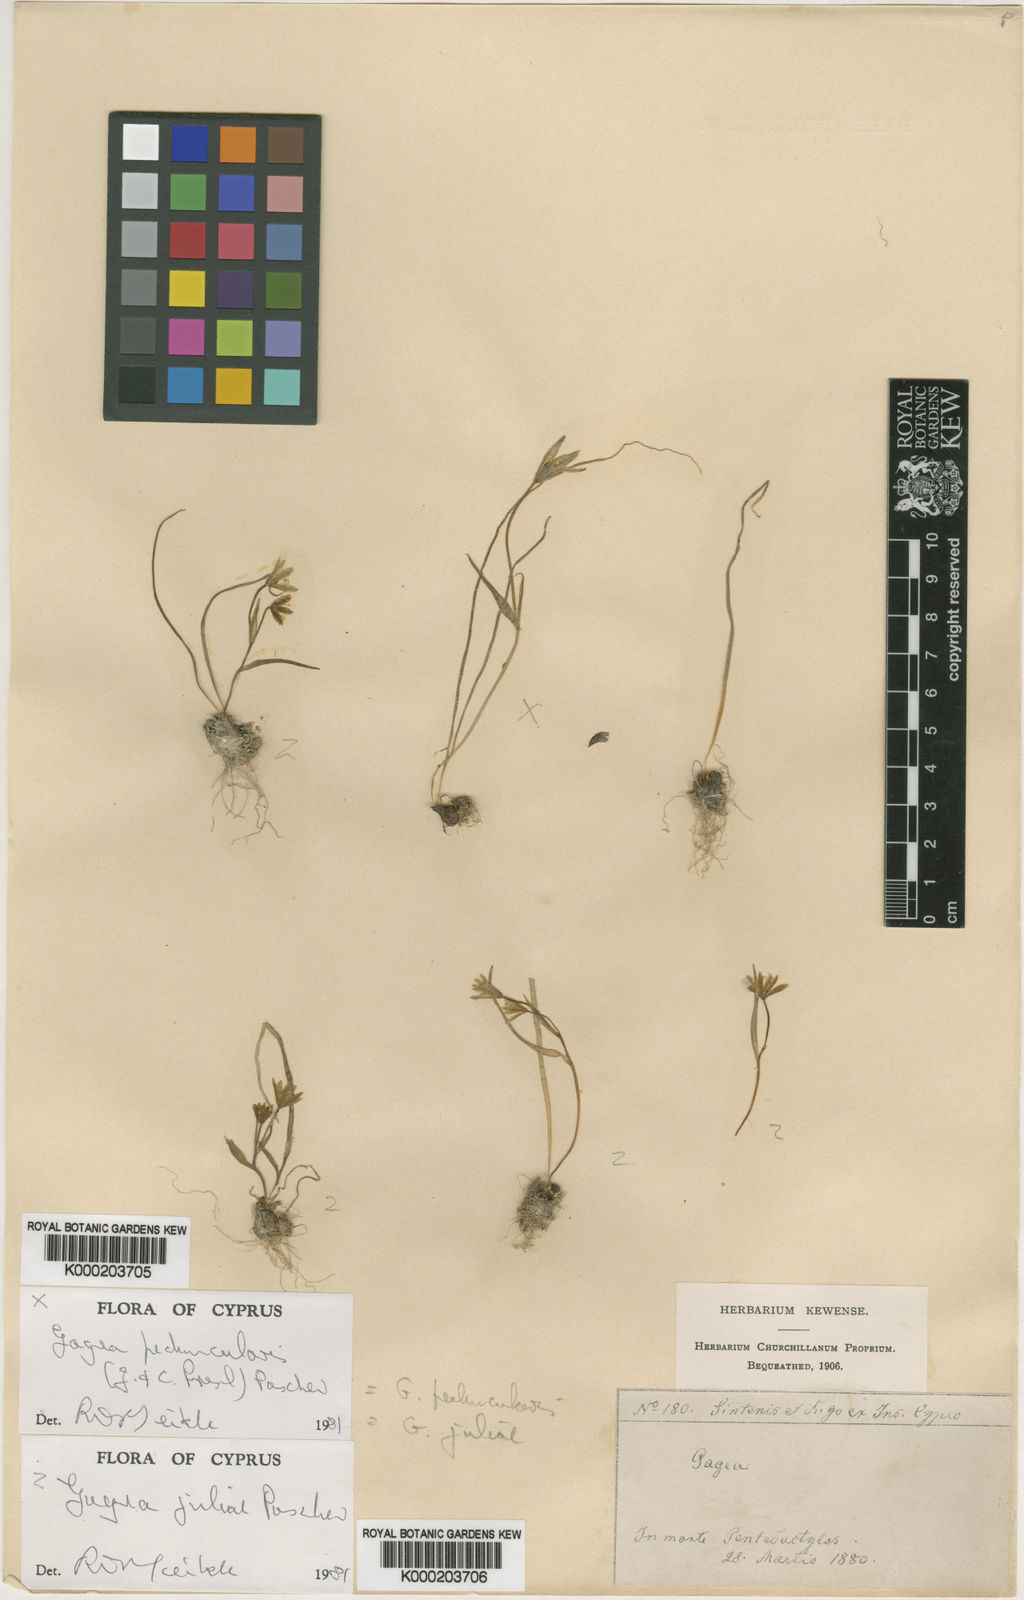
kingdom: Plantae
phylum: Tracheophyta
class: Liliopsida
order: Liliales
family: Liliaceae
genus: Gagea
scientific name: Gagea juliae
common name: Julia’s gagea
